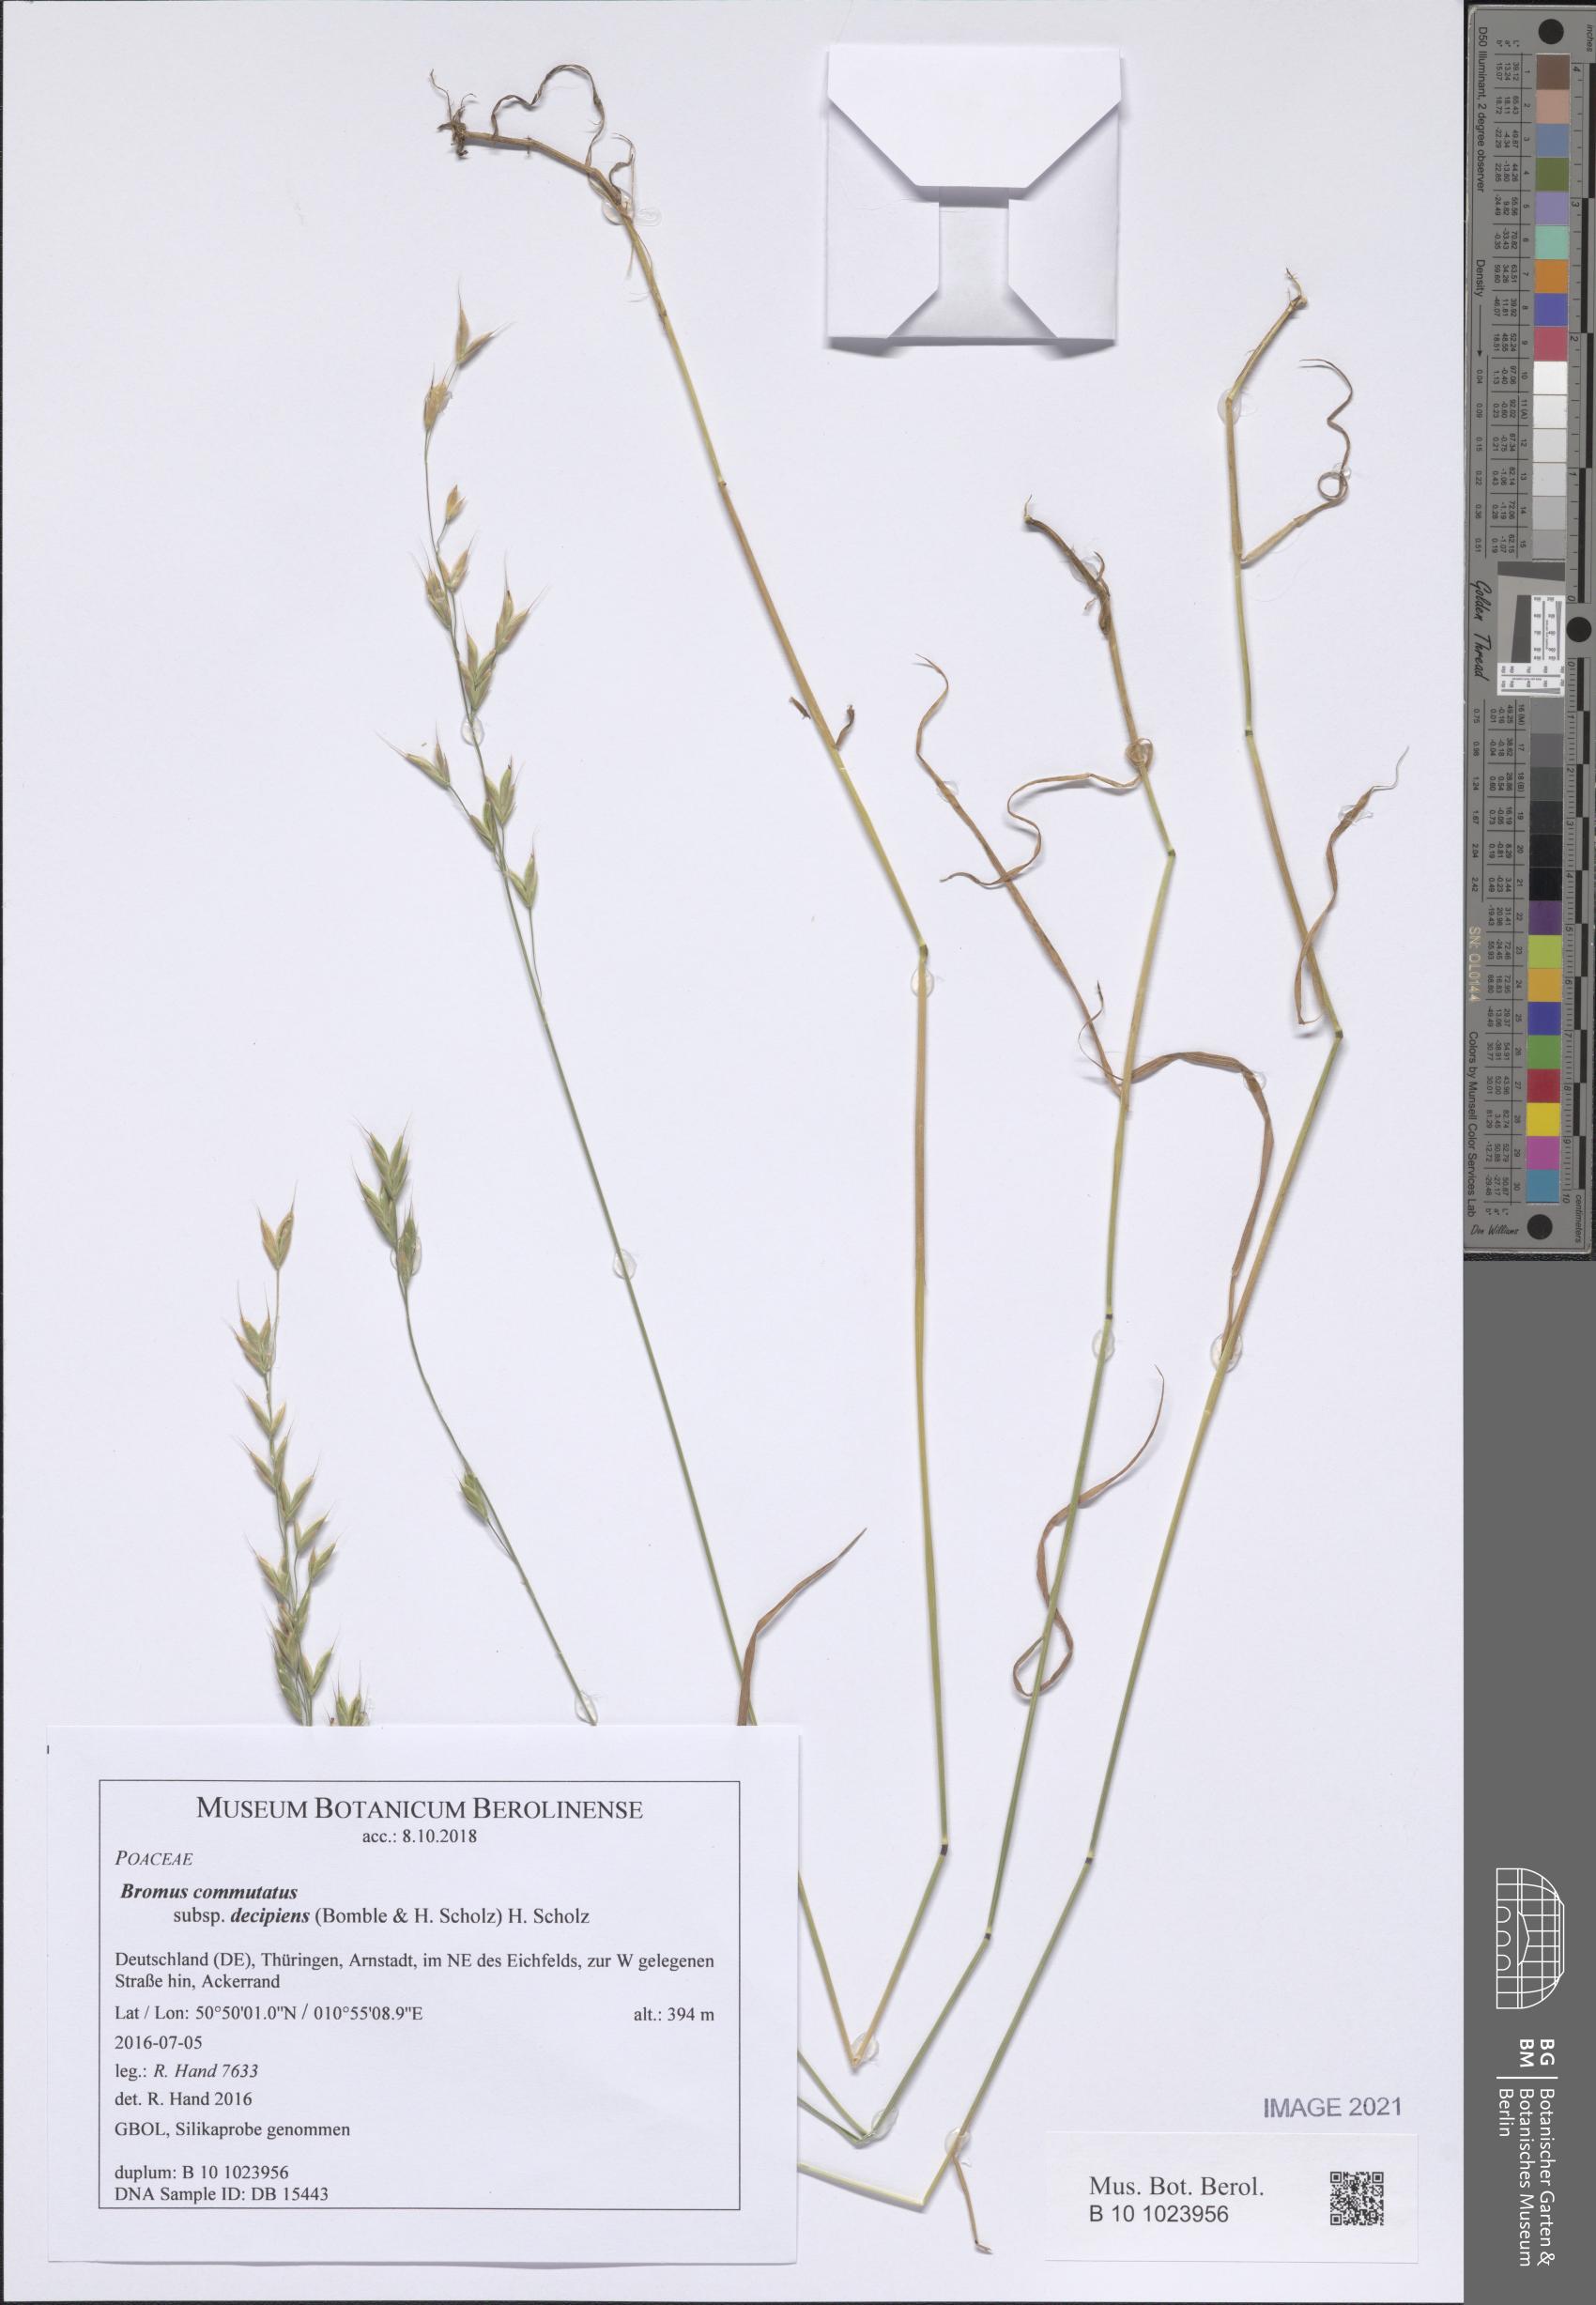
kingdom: Plantae
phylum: Tracheophyta
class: Liliopsida
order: Poales
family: Poaceae
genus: Bromus
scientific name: Bromus commutatus
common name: Meadow brome
